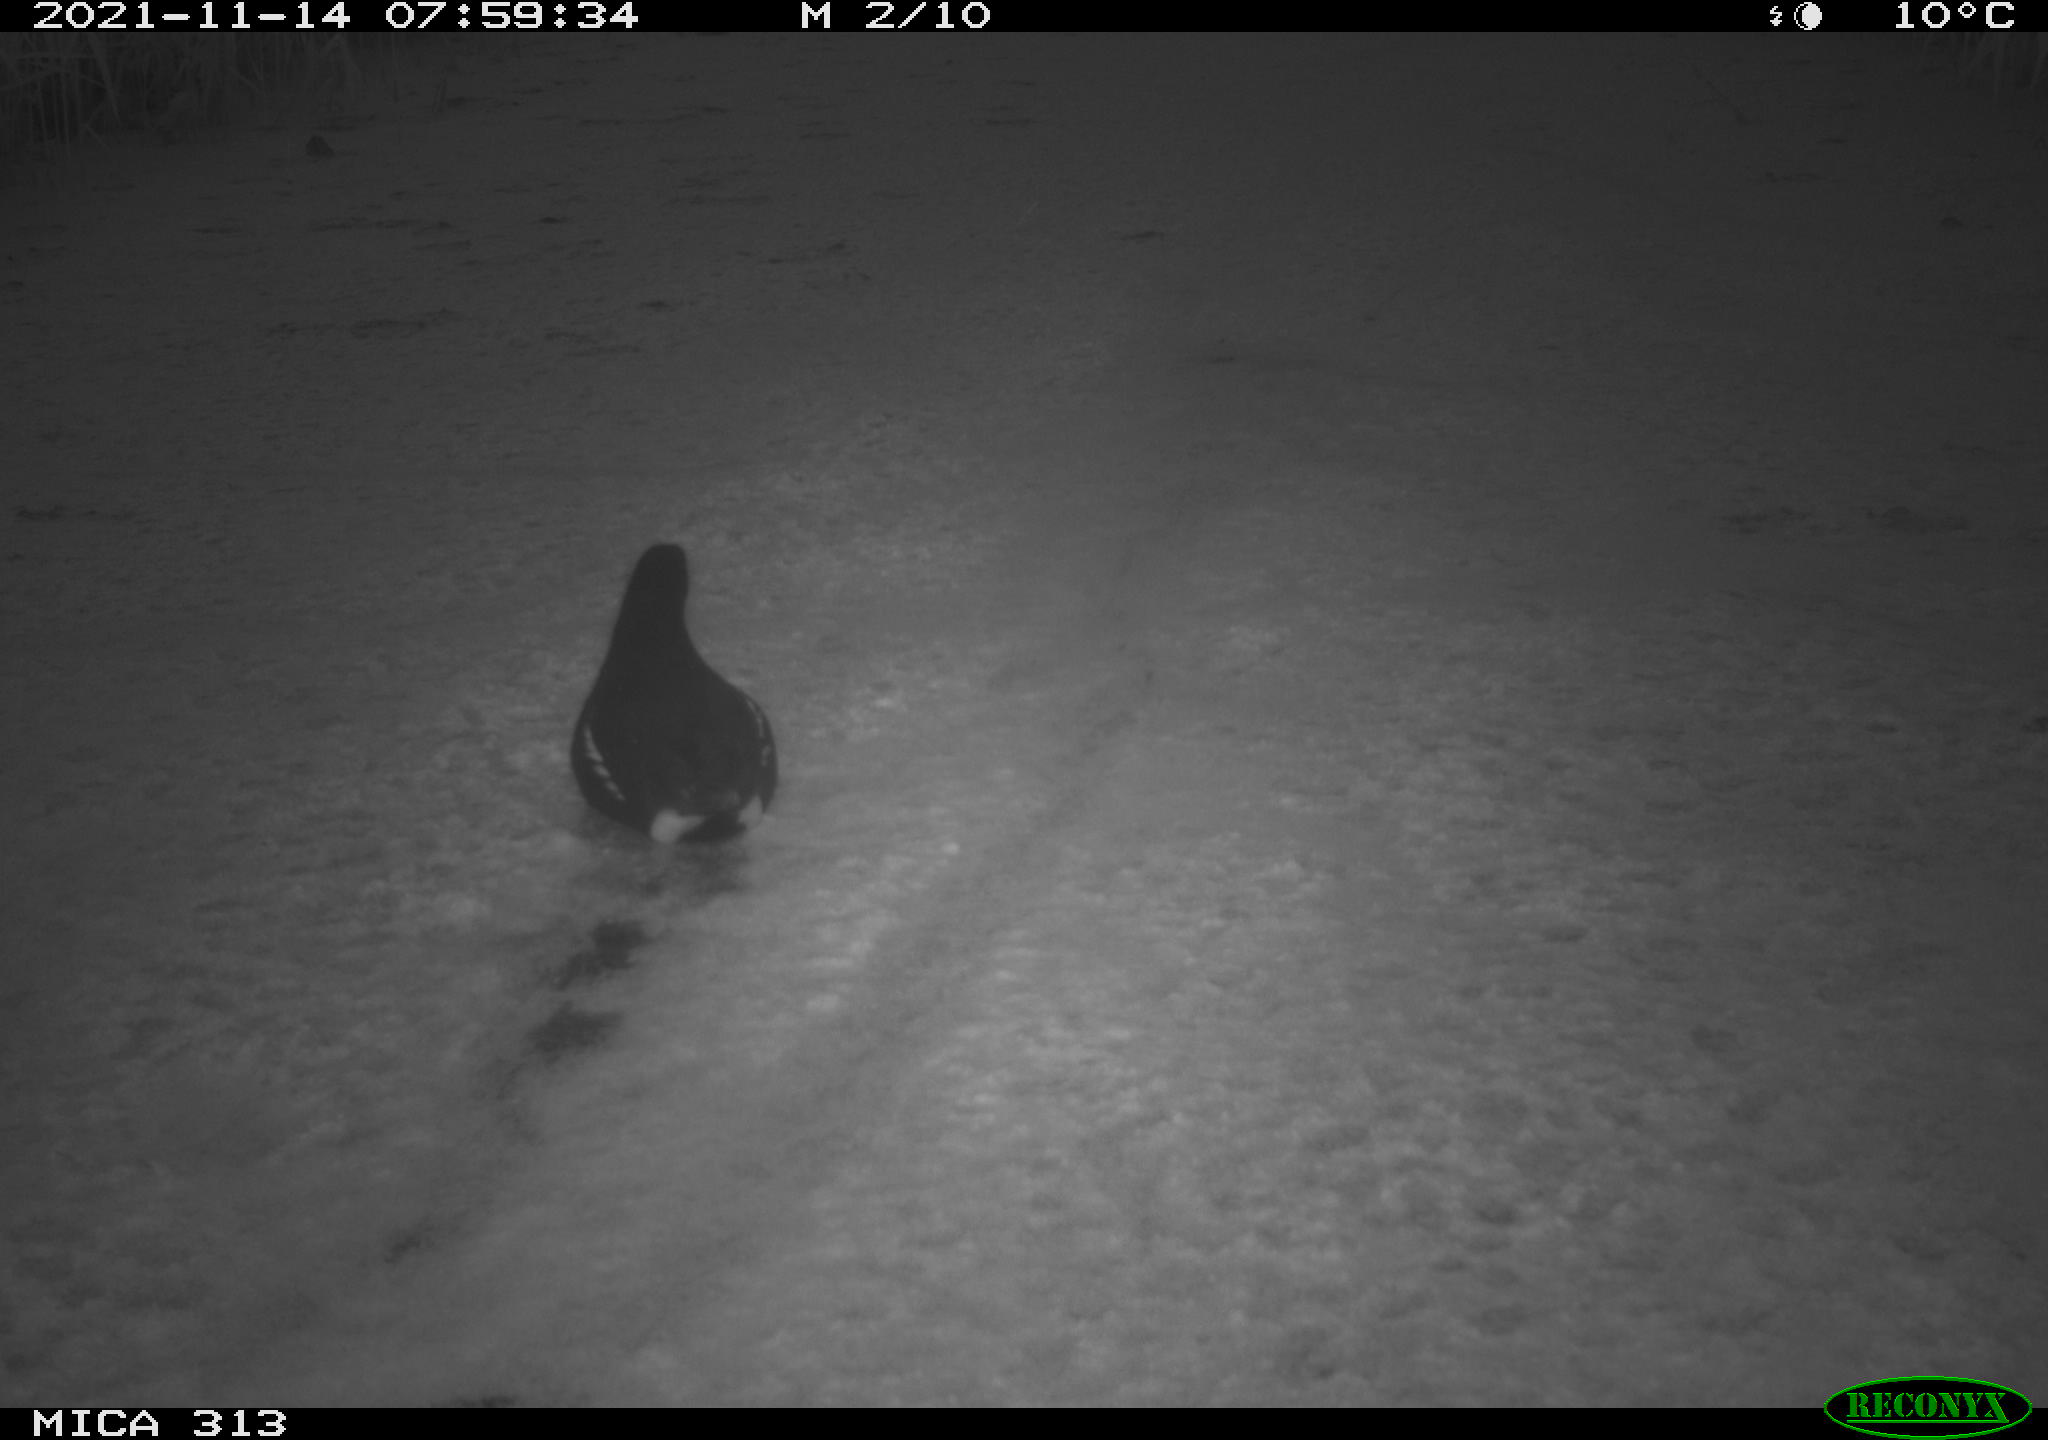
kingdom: Animalia
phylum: Chordata
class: Aves
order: Gruiformes
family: Rallidae
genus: Gallinula
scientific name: Gallinula chloropus
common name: Common moorhen
